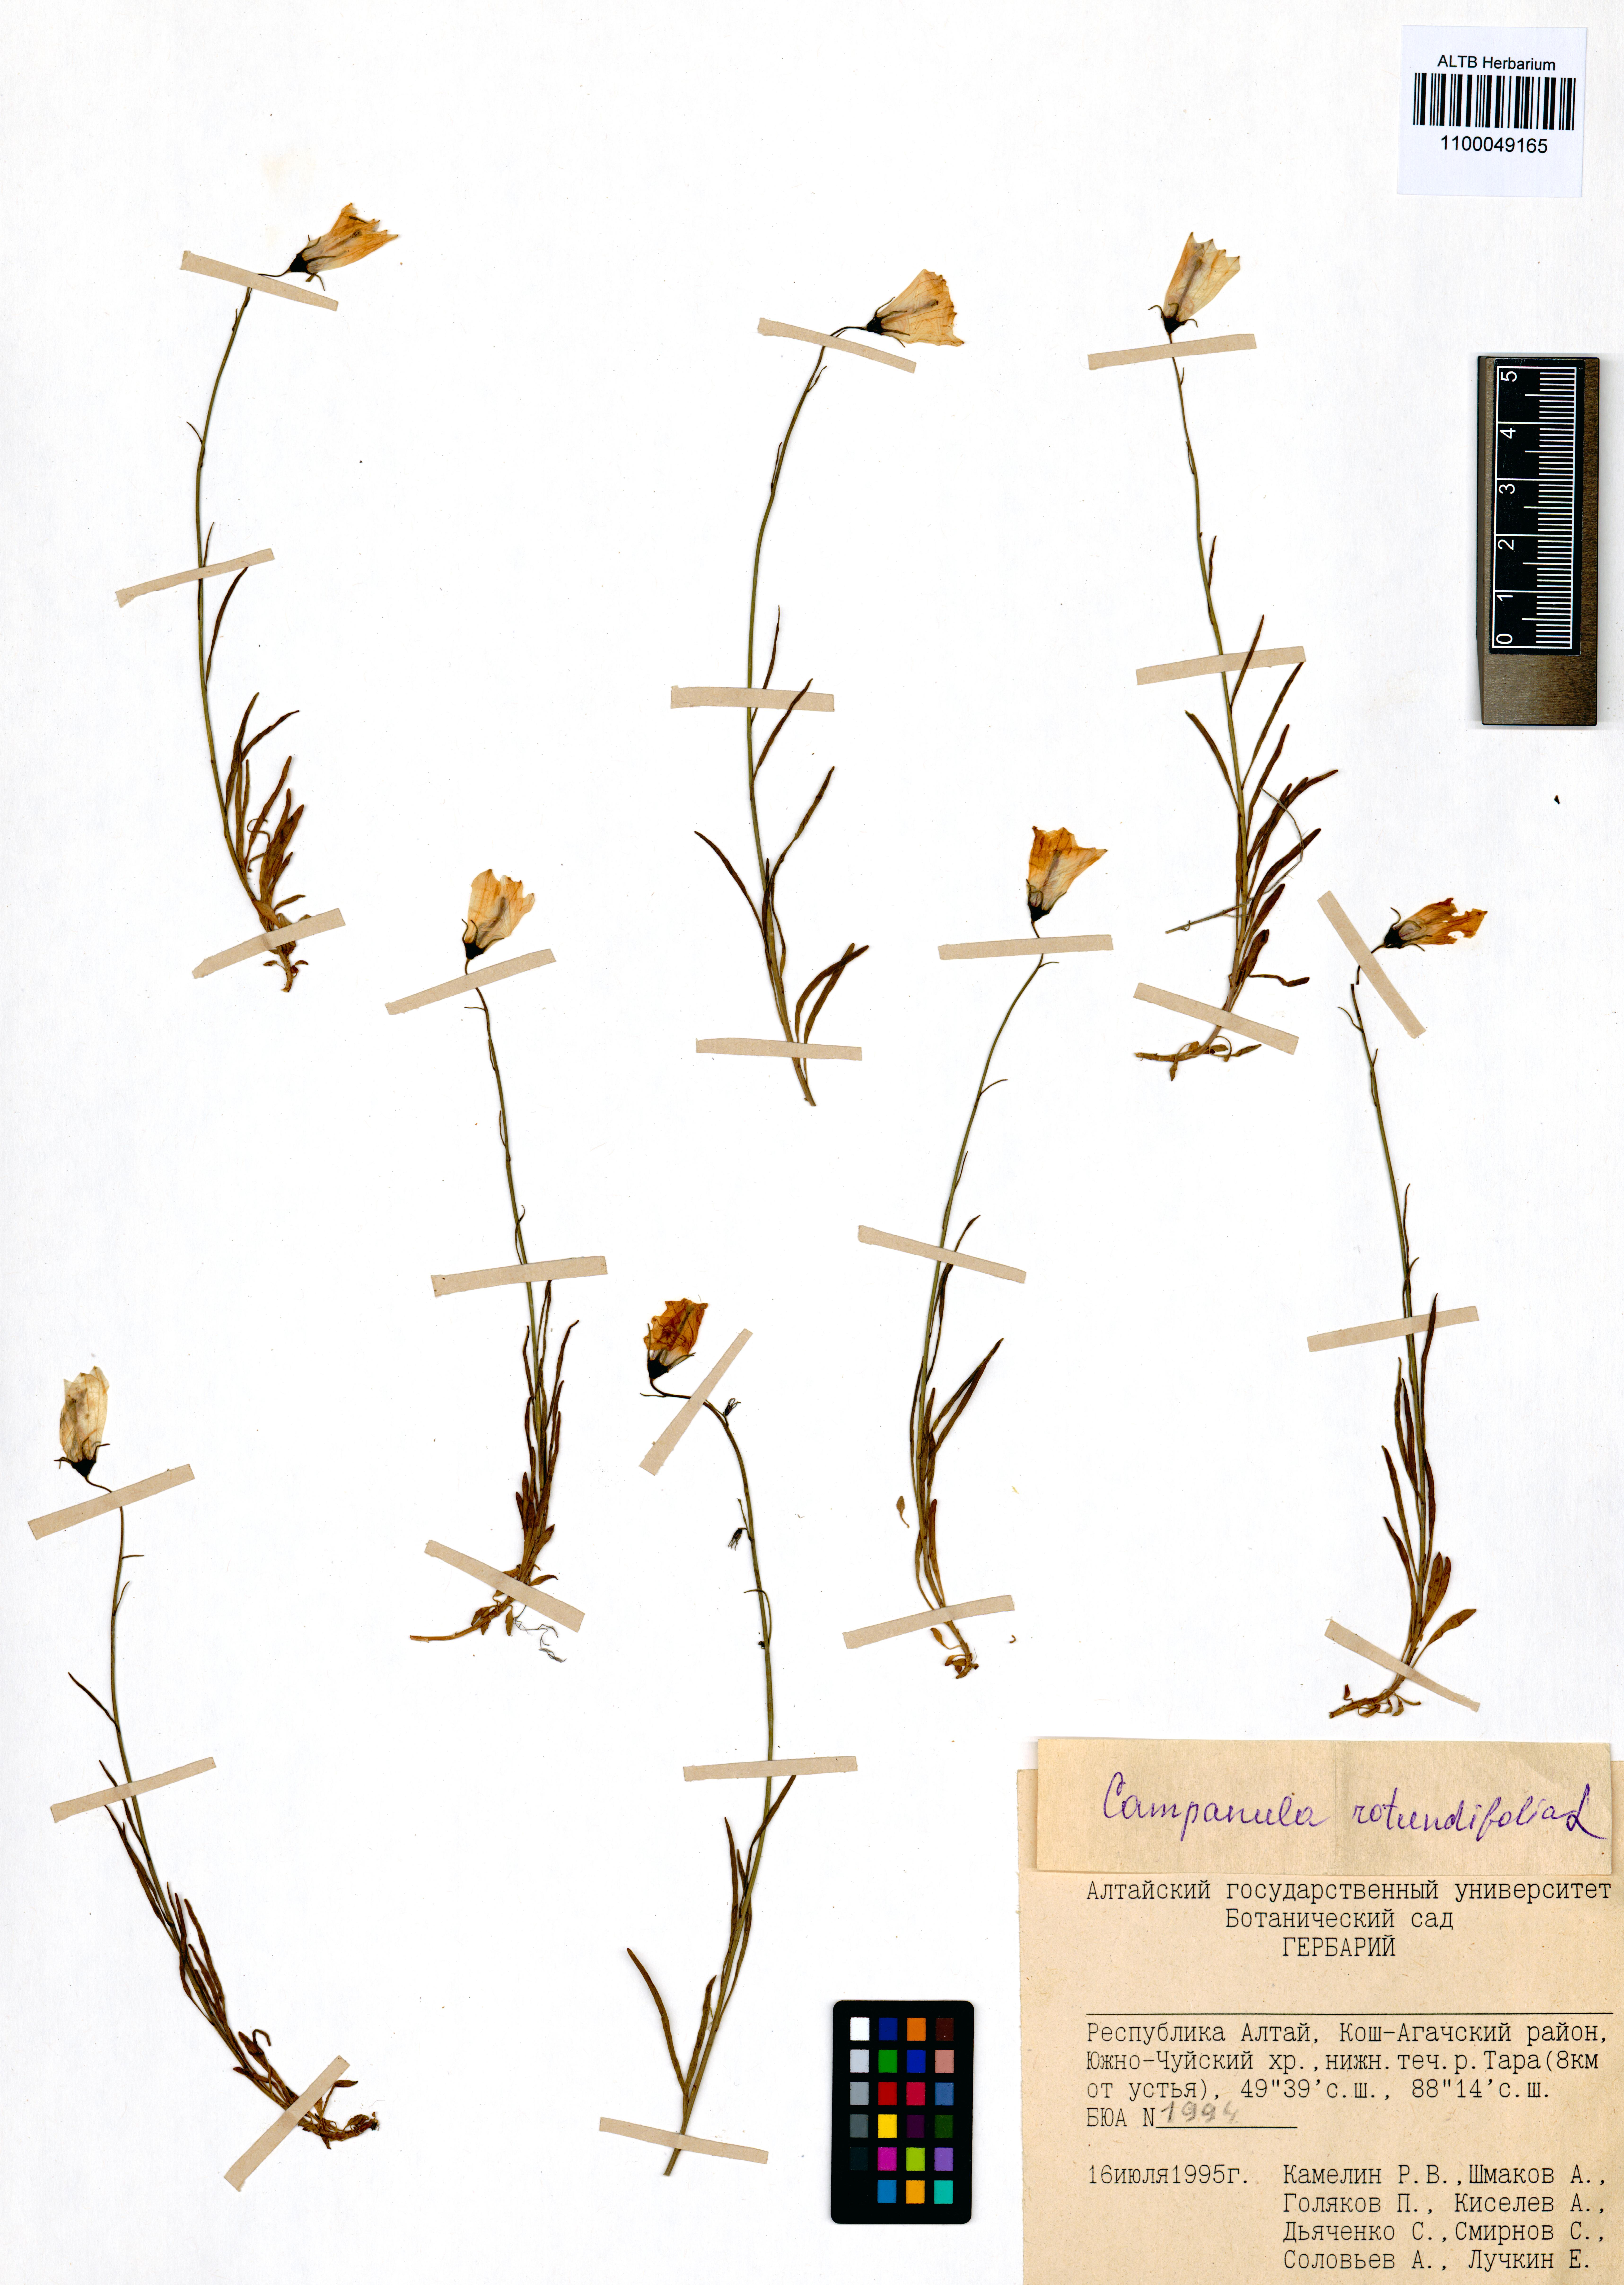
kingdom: Plantae
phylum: Tracheophyta
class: Magnoliopsida
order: Asterales
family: Campanulaceae
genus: Campanula
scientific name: Campanula rotundifolia
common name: Harebell
